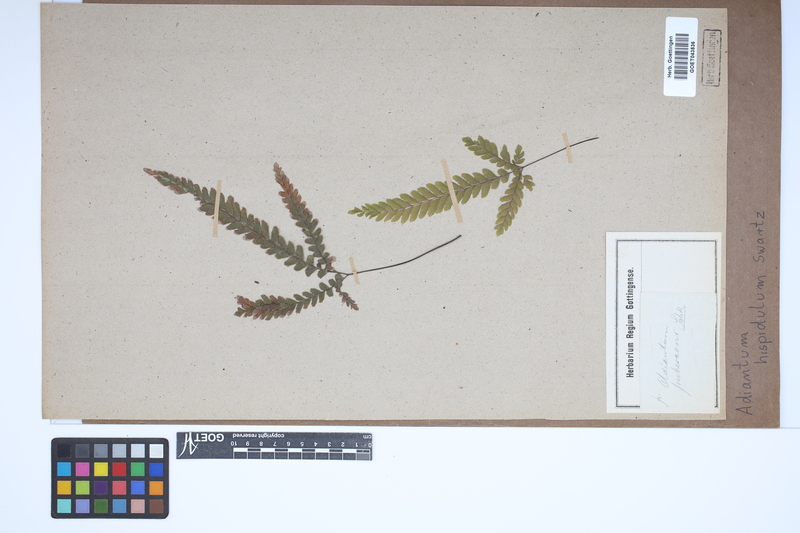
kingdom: Plantae
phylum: Tracheophyta
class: Polypodiopsida
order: Polypodiales
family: Pteridaceae
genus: Adiantum
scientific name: Adiantum hispidulum
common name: Rough maidenhair
